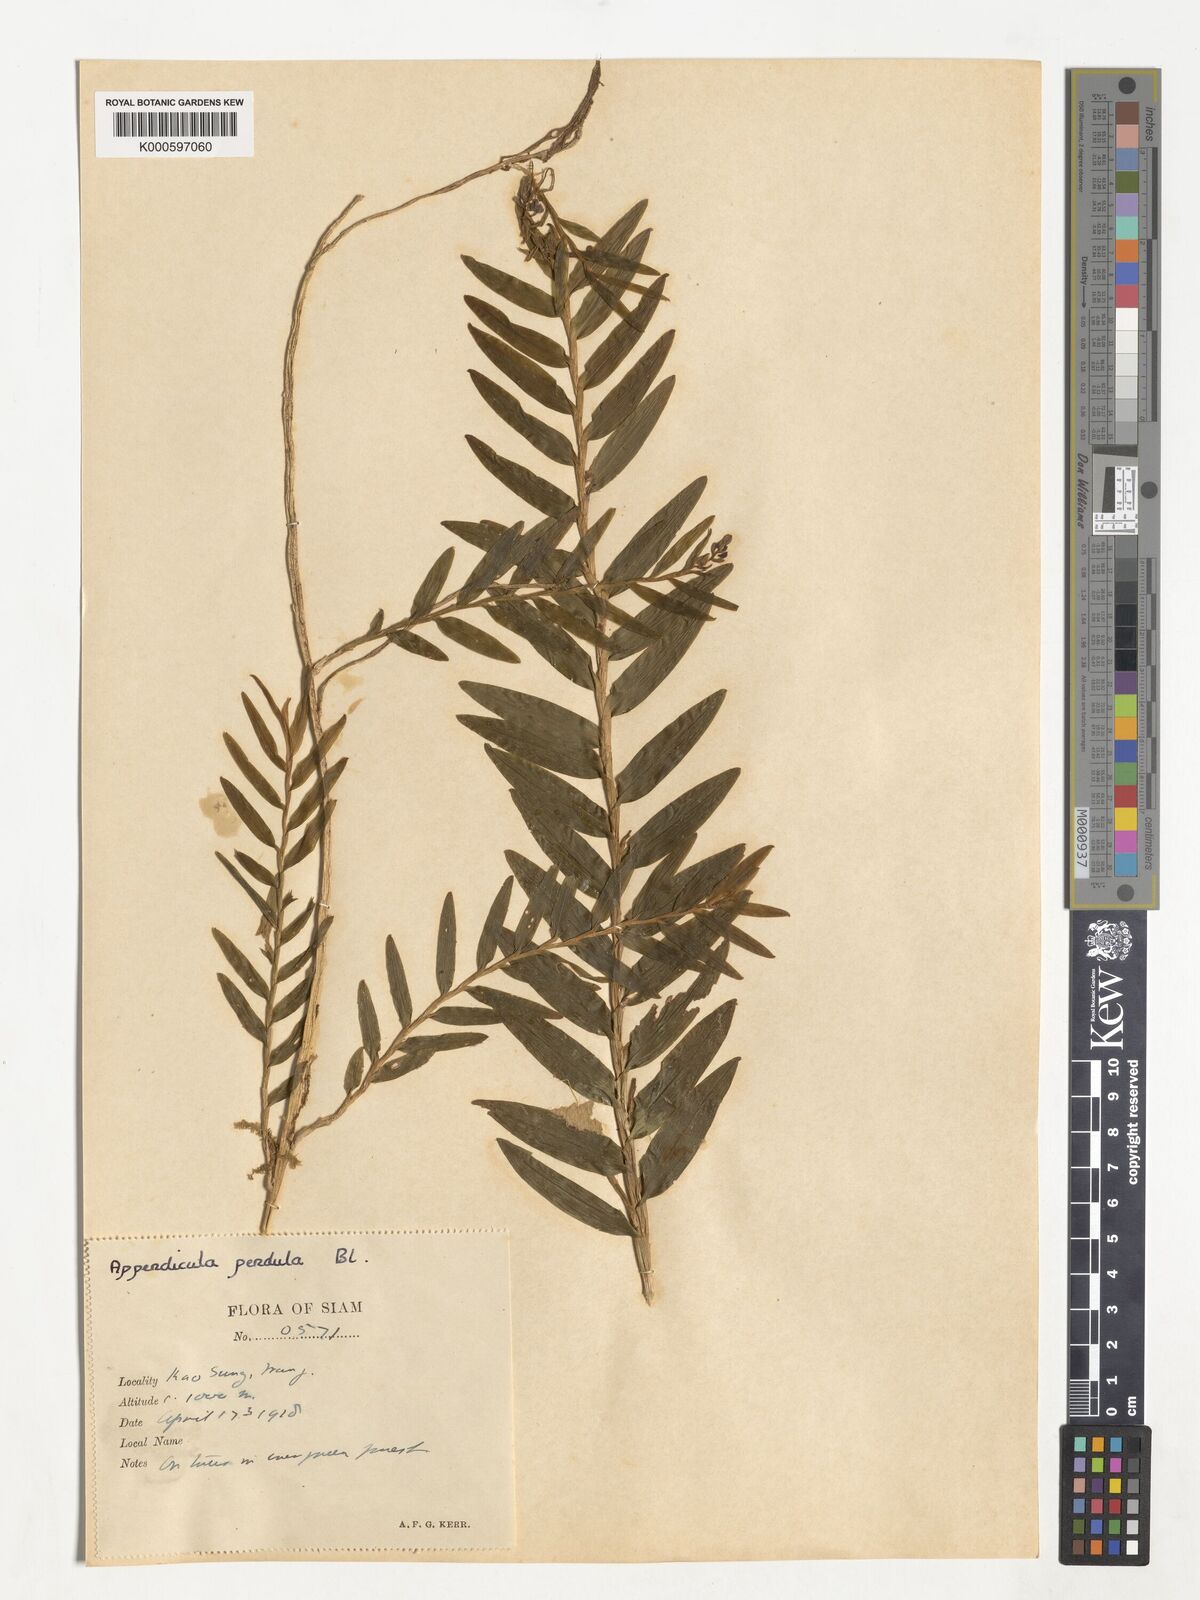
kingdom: Plantae
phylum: Tracheophyta
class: Liliopsida
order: Asparagales
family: Orchidaceae
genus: Appendicula
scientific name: Appendicula pendula
